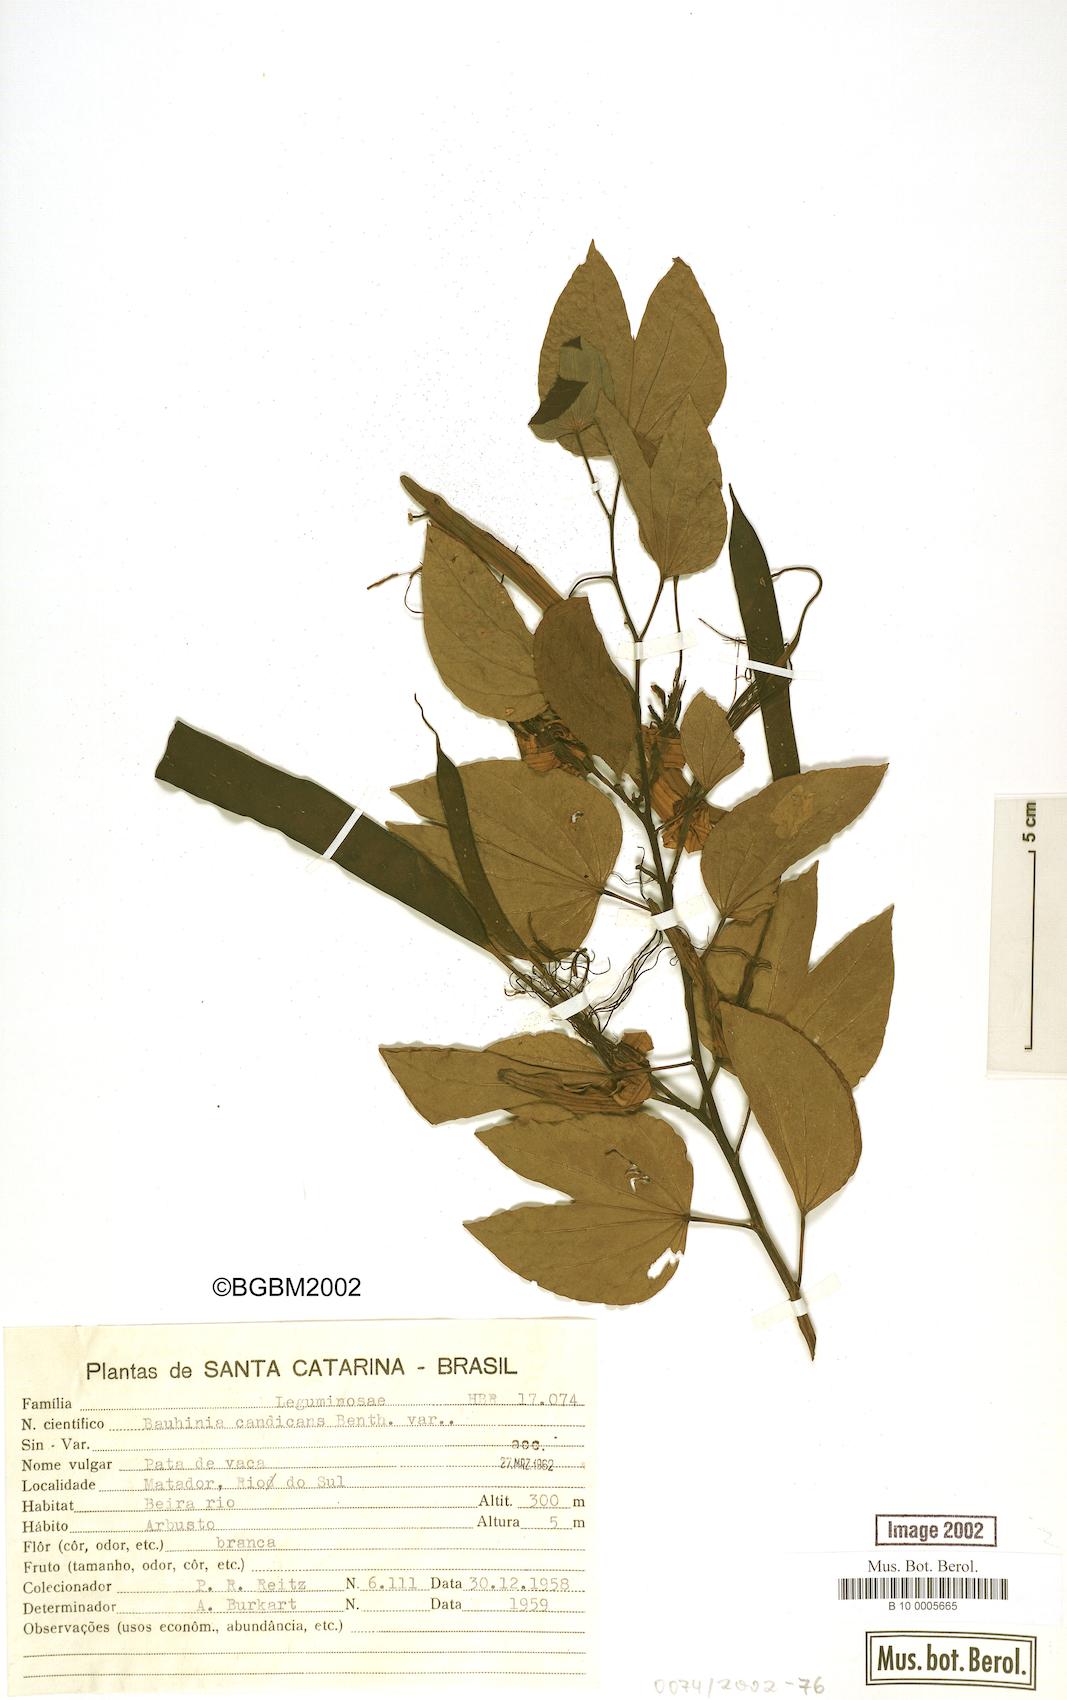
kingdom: Plantae
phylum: Tracheophyta
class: Magnoliopsida
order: Fabales
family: Fabaceae
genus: Bauhinia
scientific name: Bauhinia forficata
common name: Orchid tree
